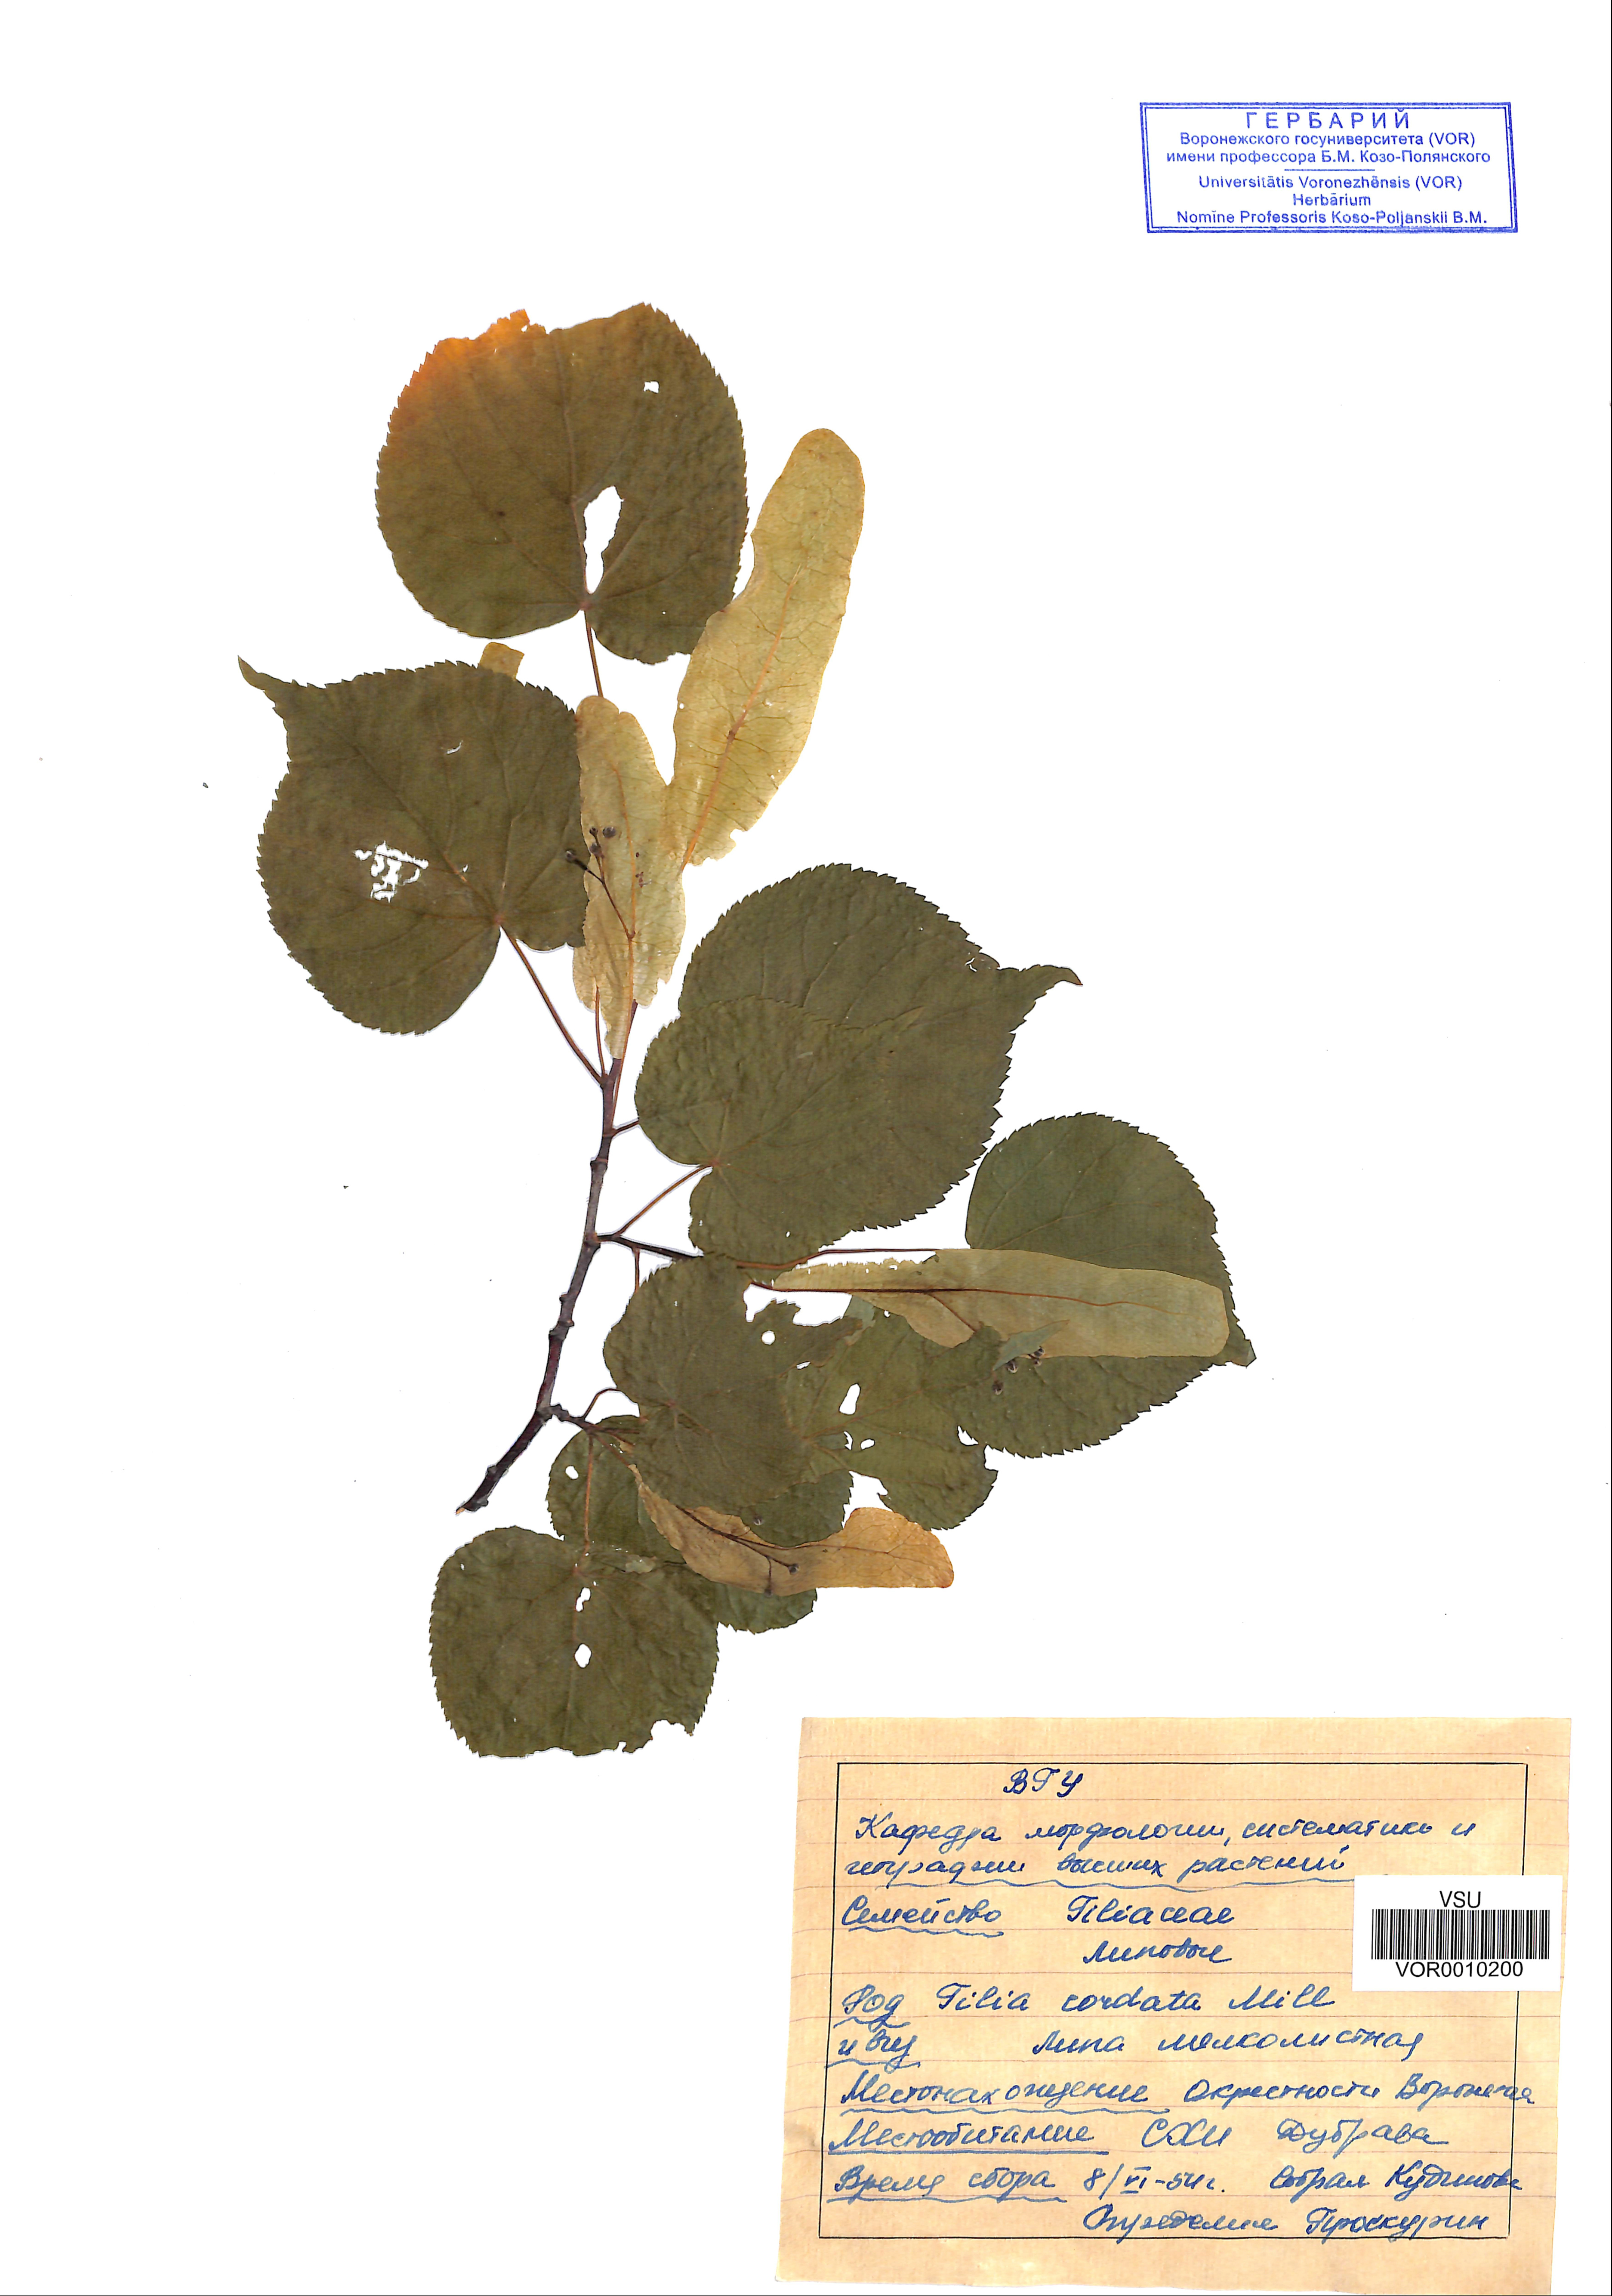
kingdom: Plantae
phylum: Tracheophyta
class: Magnoliopsida
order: Malvales
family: Malvaceae
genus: Tilia
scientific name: Tilia cordata
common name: Small-leaved lime
